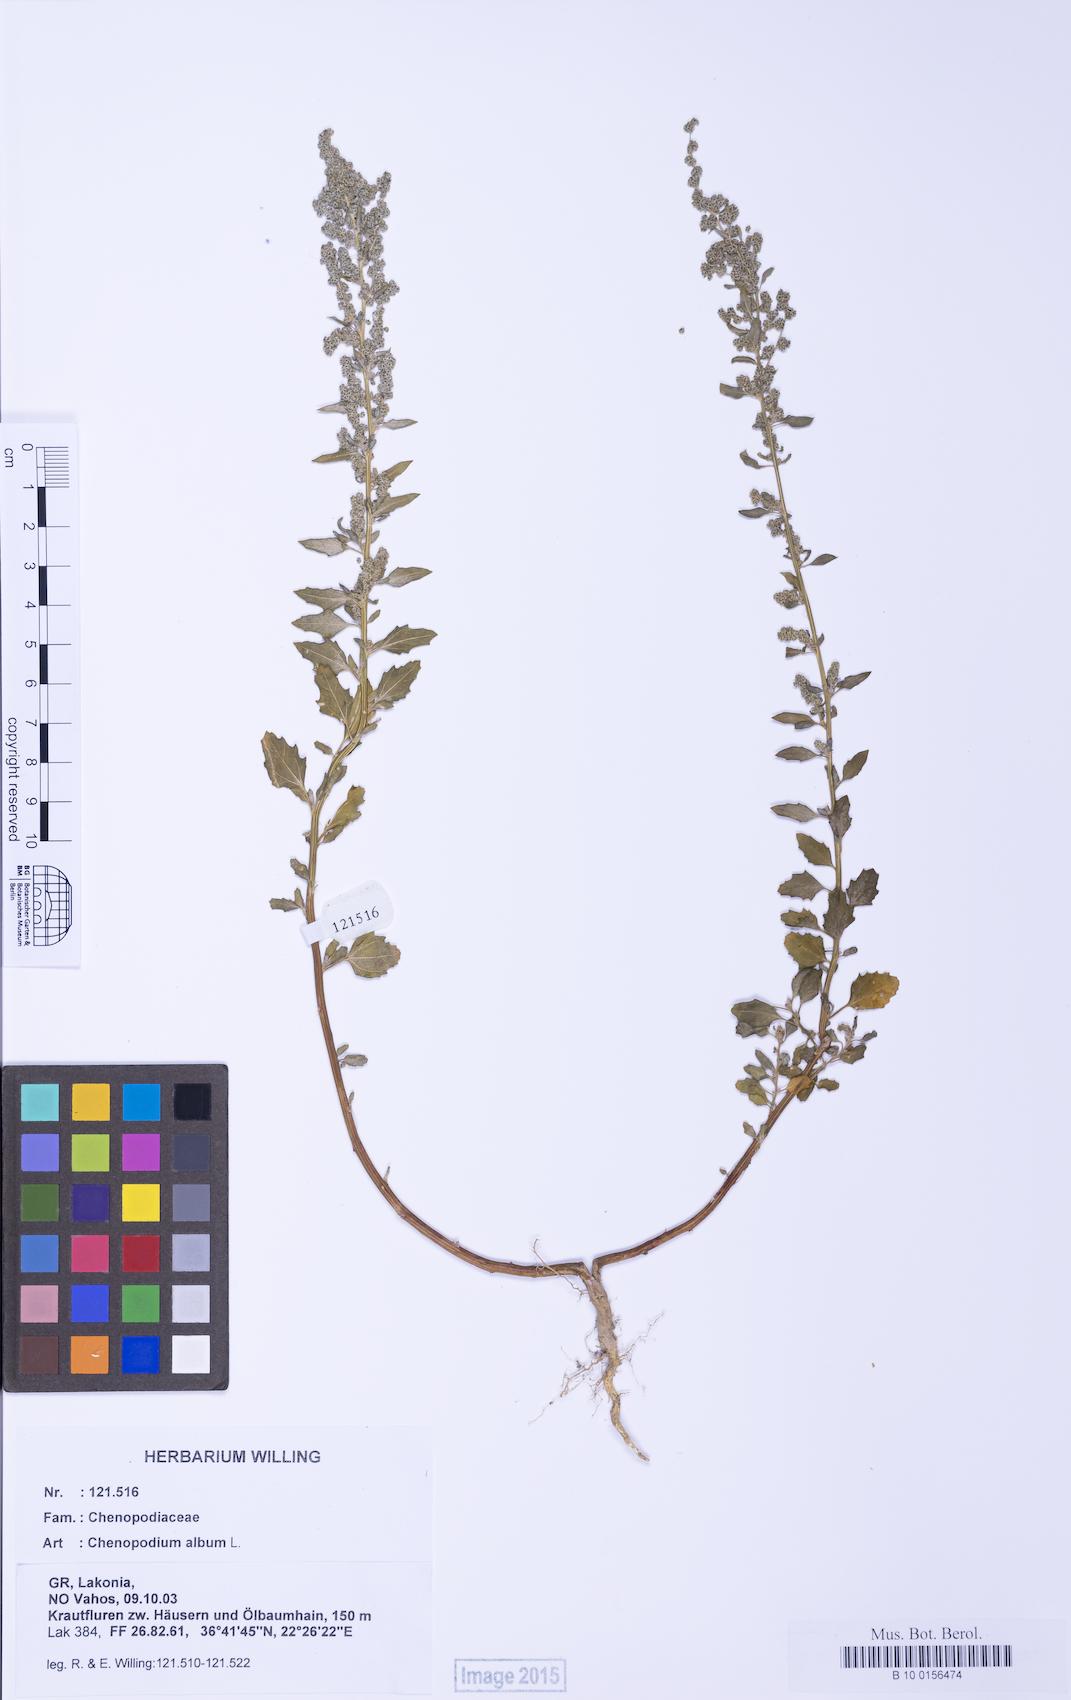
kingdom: Plantae
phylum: Tracheophyta
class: Magnoliopsida
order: Caryophyllales
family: Amaranthaceae
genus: Chenopodium
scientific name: Chenopodium album
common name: Fat-hen
